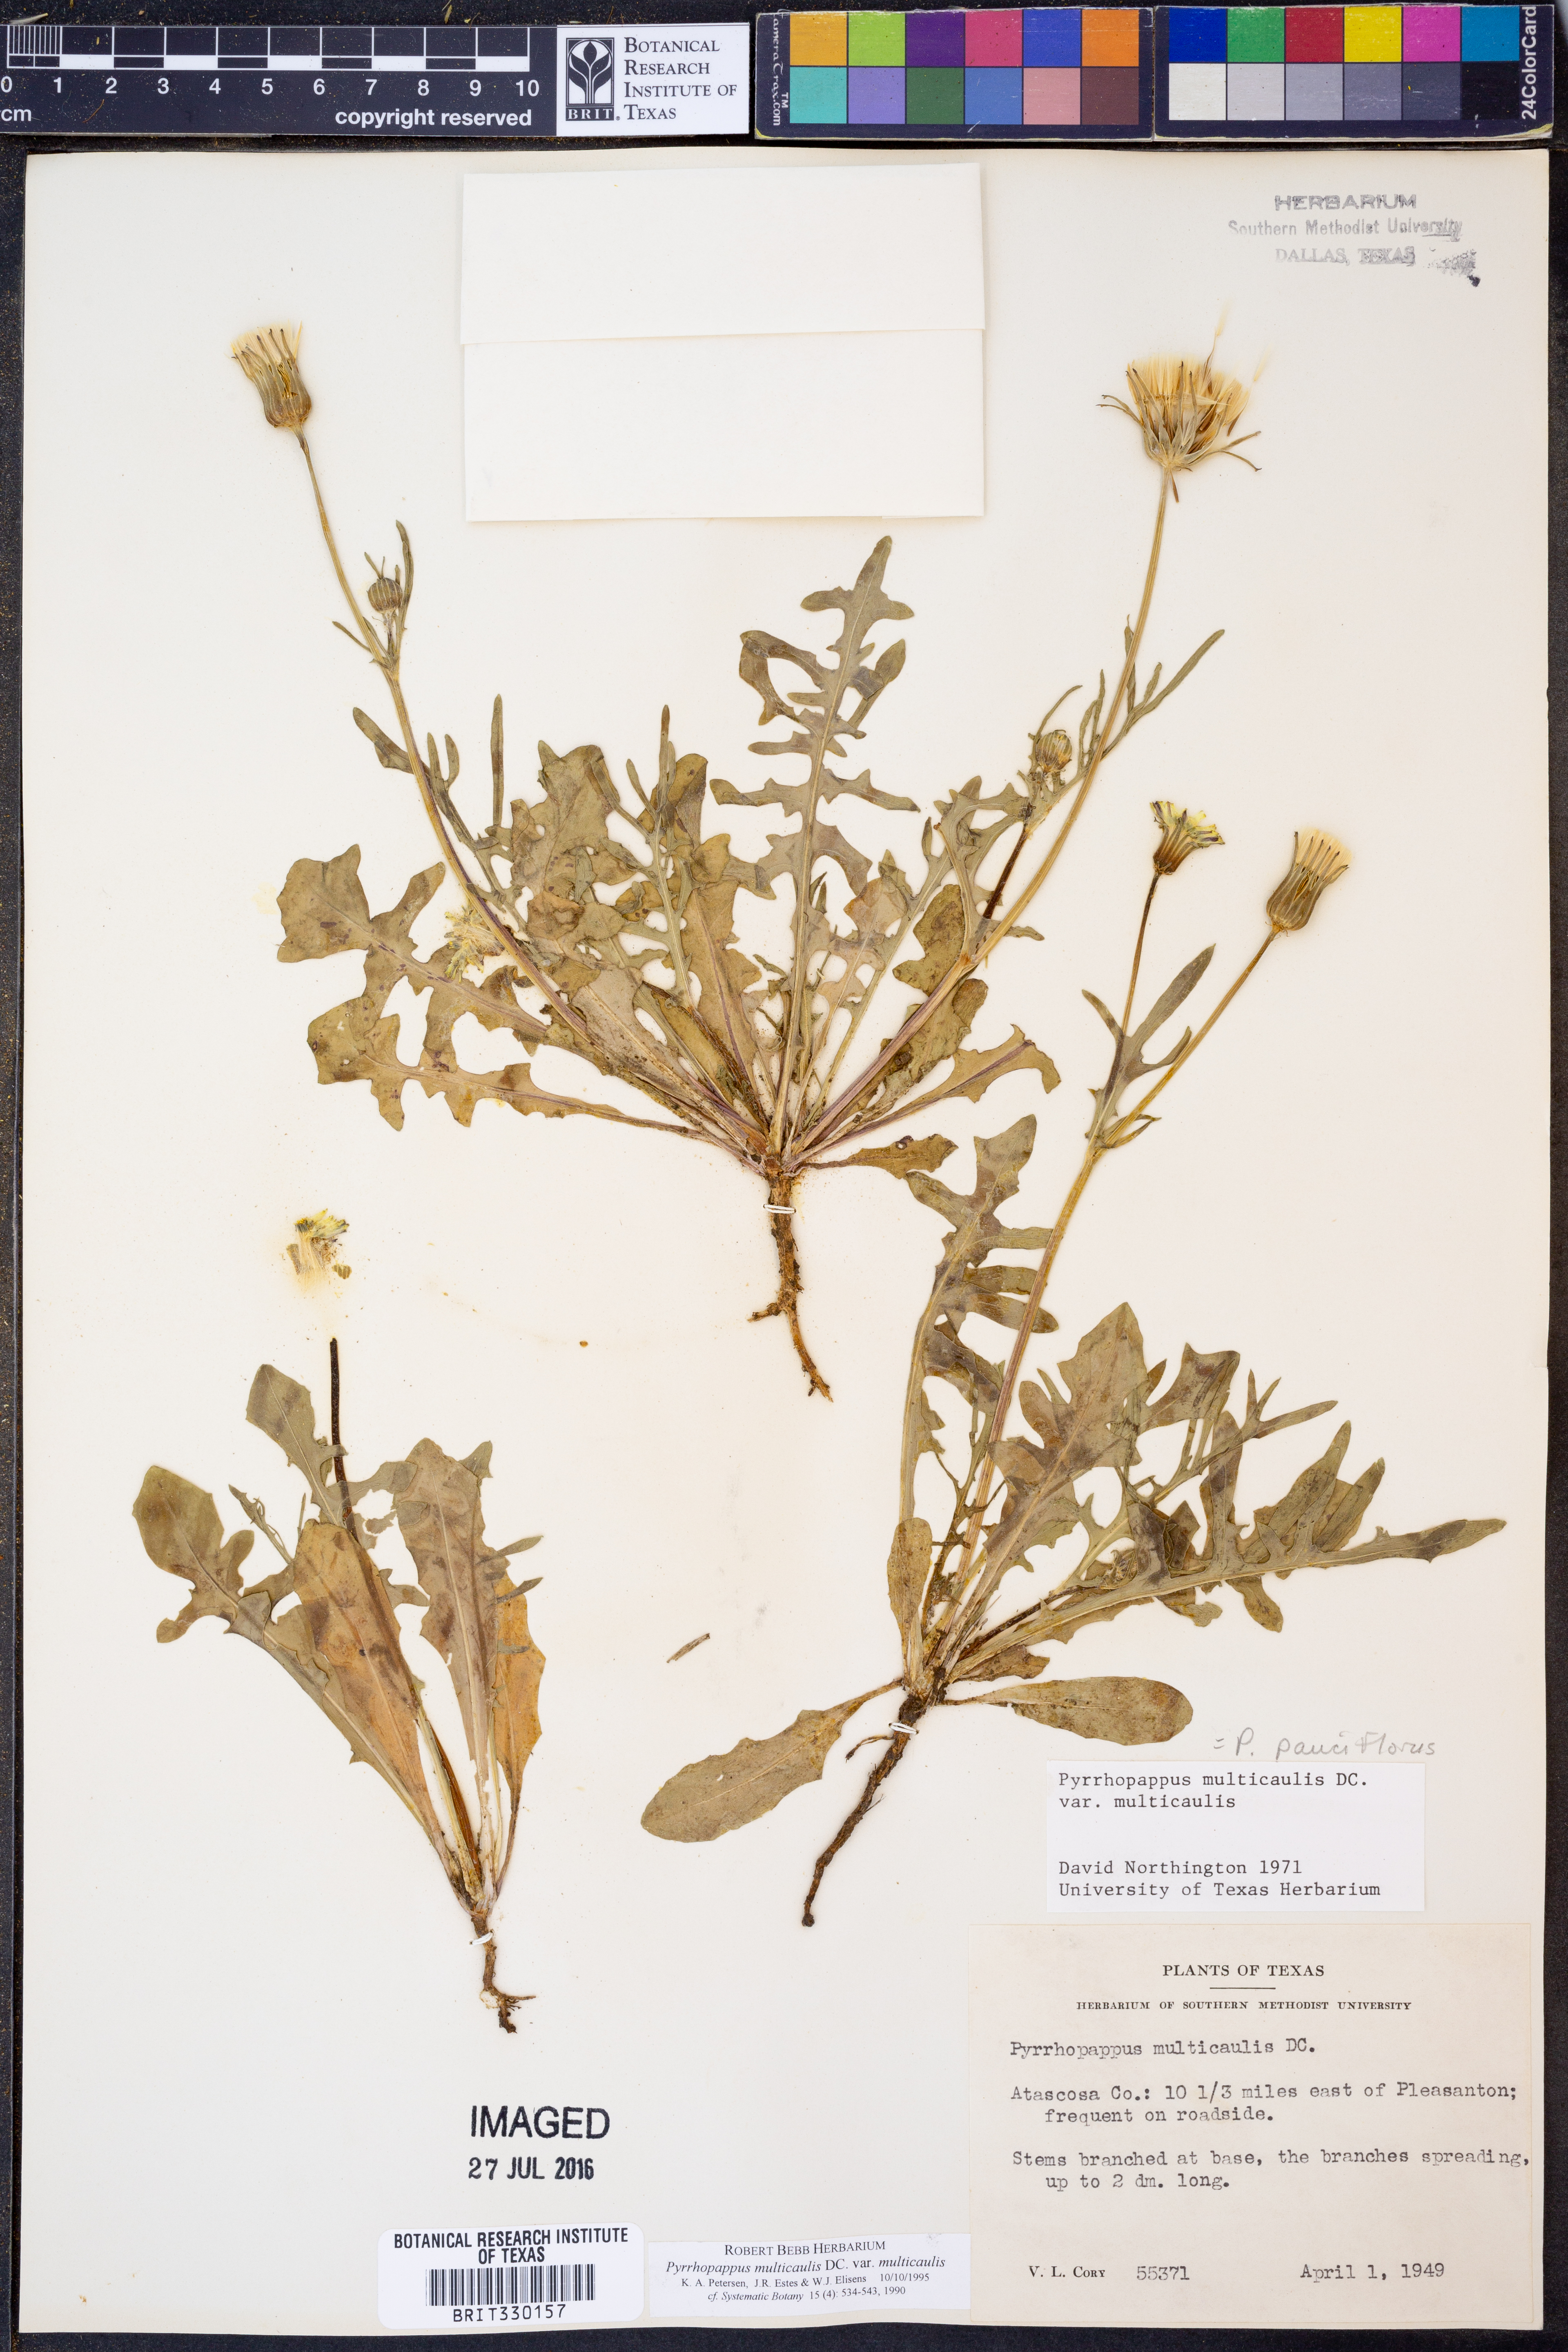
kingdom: Plantae
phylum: Tracheophyta
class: Magnoliopsida
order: Asterales
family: Asteraceae
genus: Pyrrhopappus
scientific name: Pyrrhopappus pauciflorus
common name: Texas false dandelion
